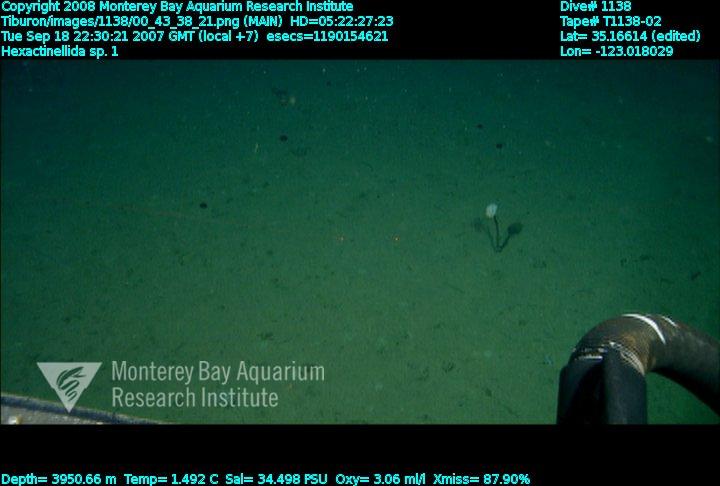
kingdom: Animalia
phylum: Porifera
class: Hexactinellida
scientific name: Hexactinellida
